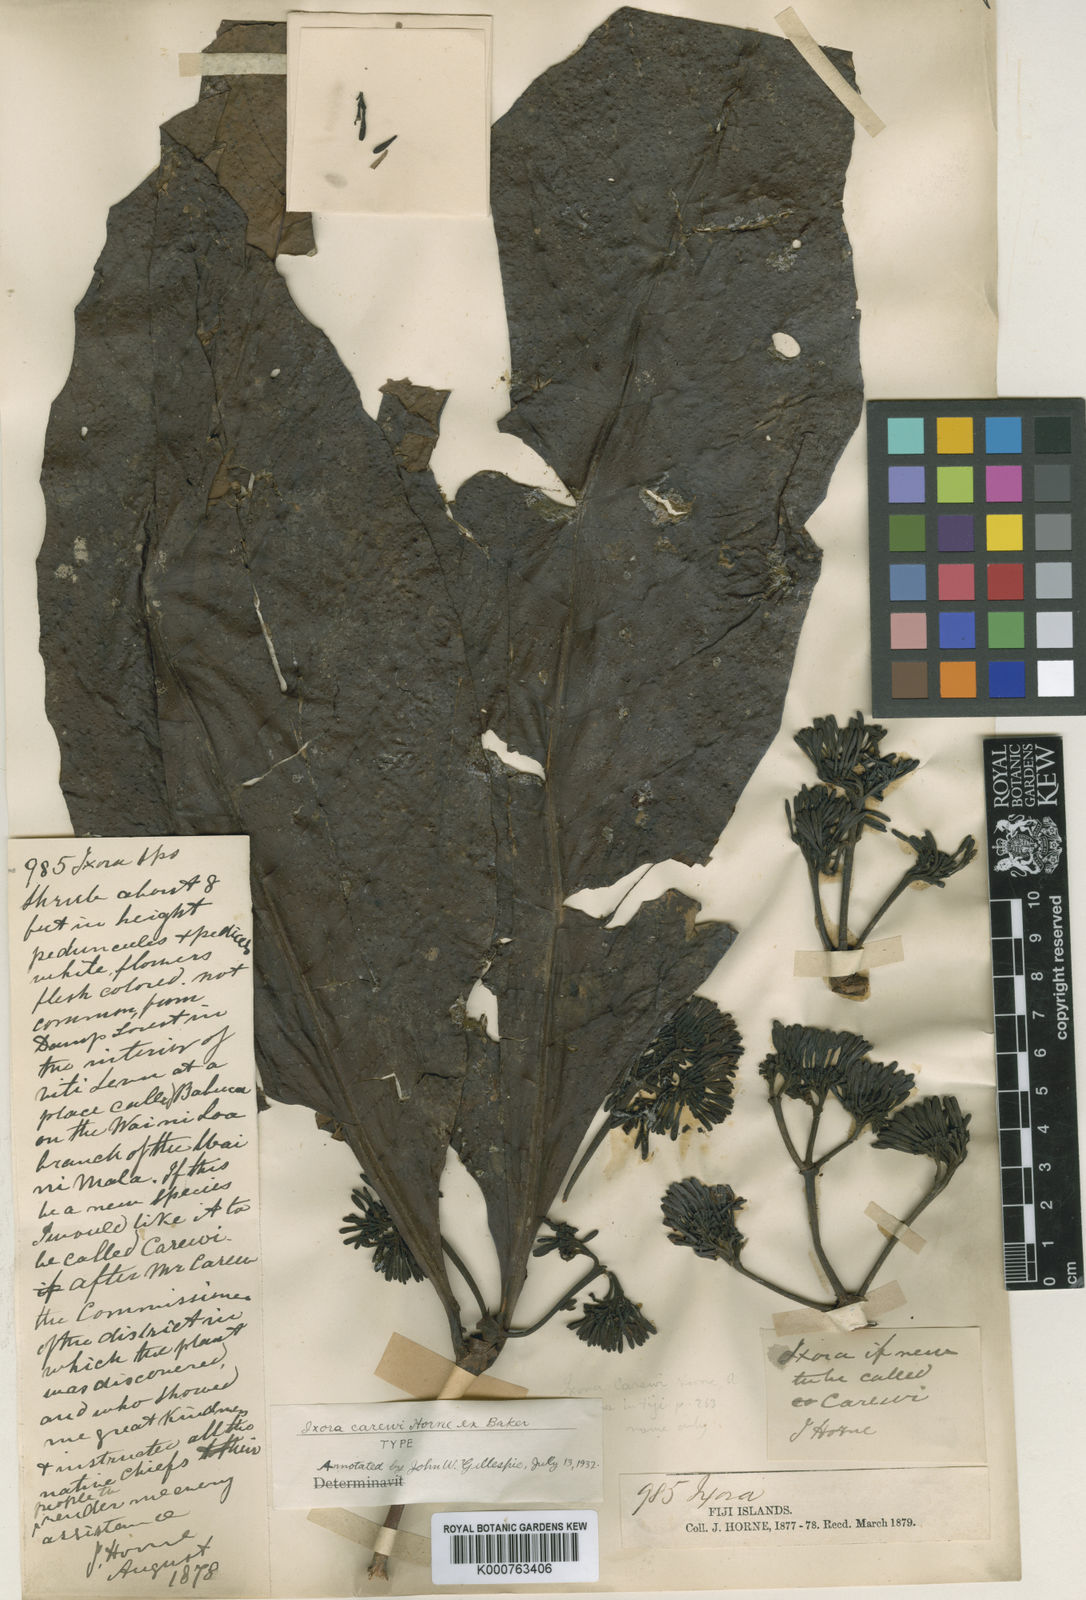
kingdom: Plantae
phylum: Tracheophyta
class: Magnoliopsida
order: Gentianales
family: Rubiaceae
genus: Ixora
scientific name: Ixora carewii
